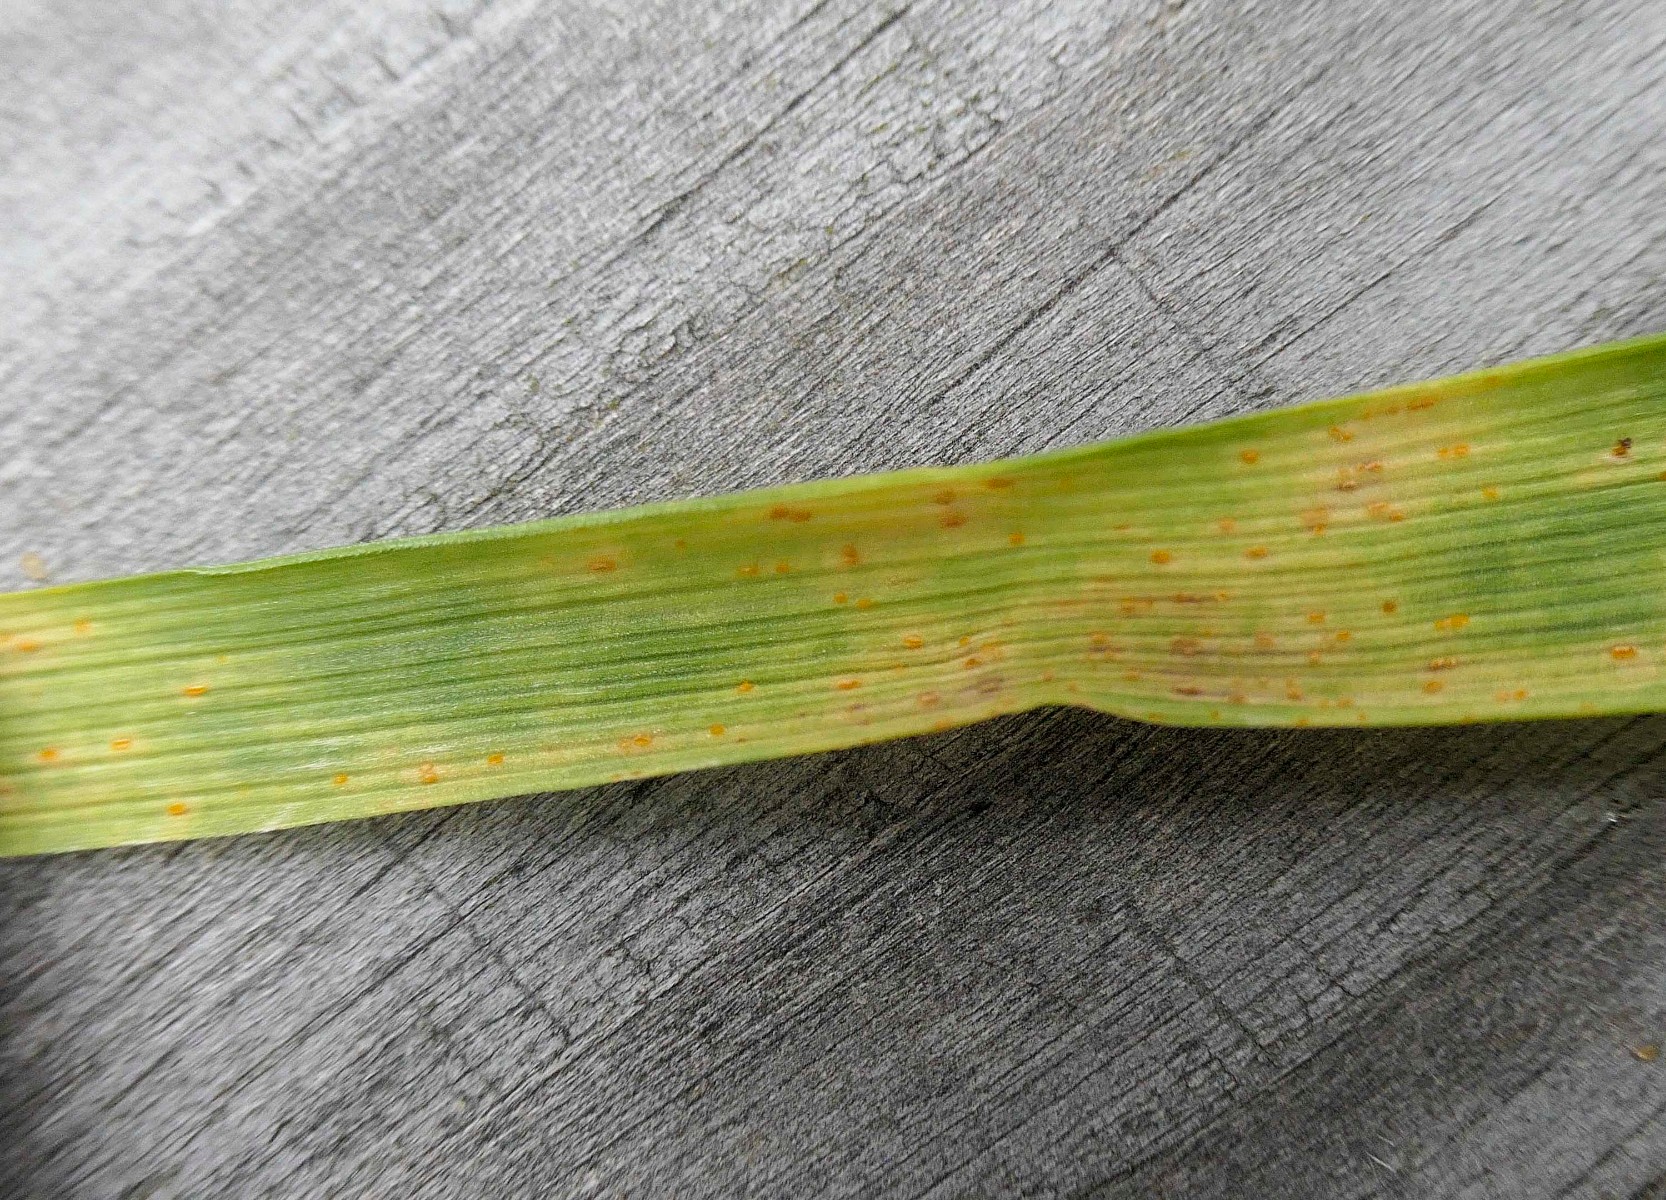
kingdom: Fungi
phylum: Basidiomycota
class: Pucciniomycetes
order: Pucciniales
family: Pucciniaceae
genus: Puccinia
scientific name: Puccinia
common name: tvecellerust
